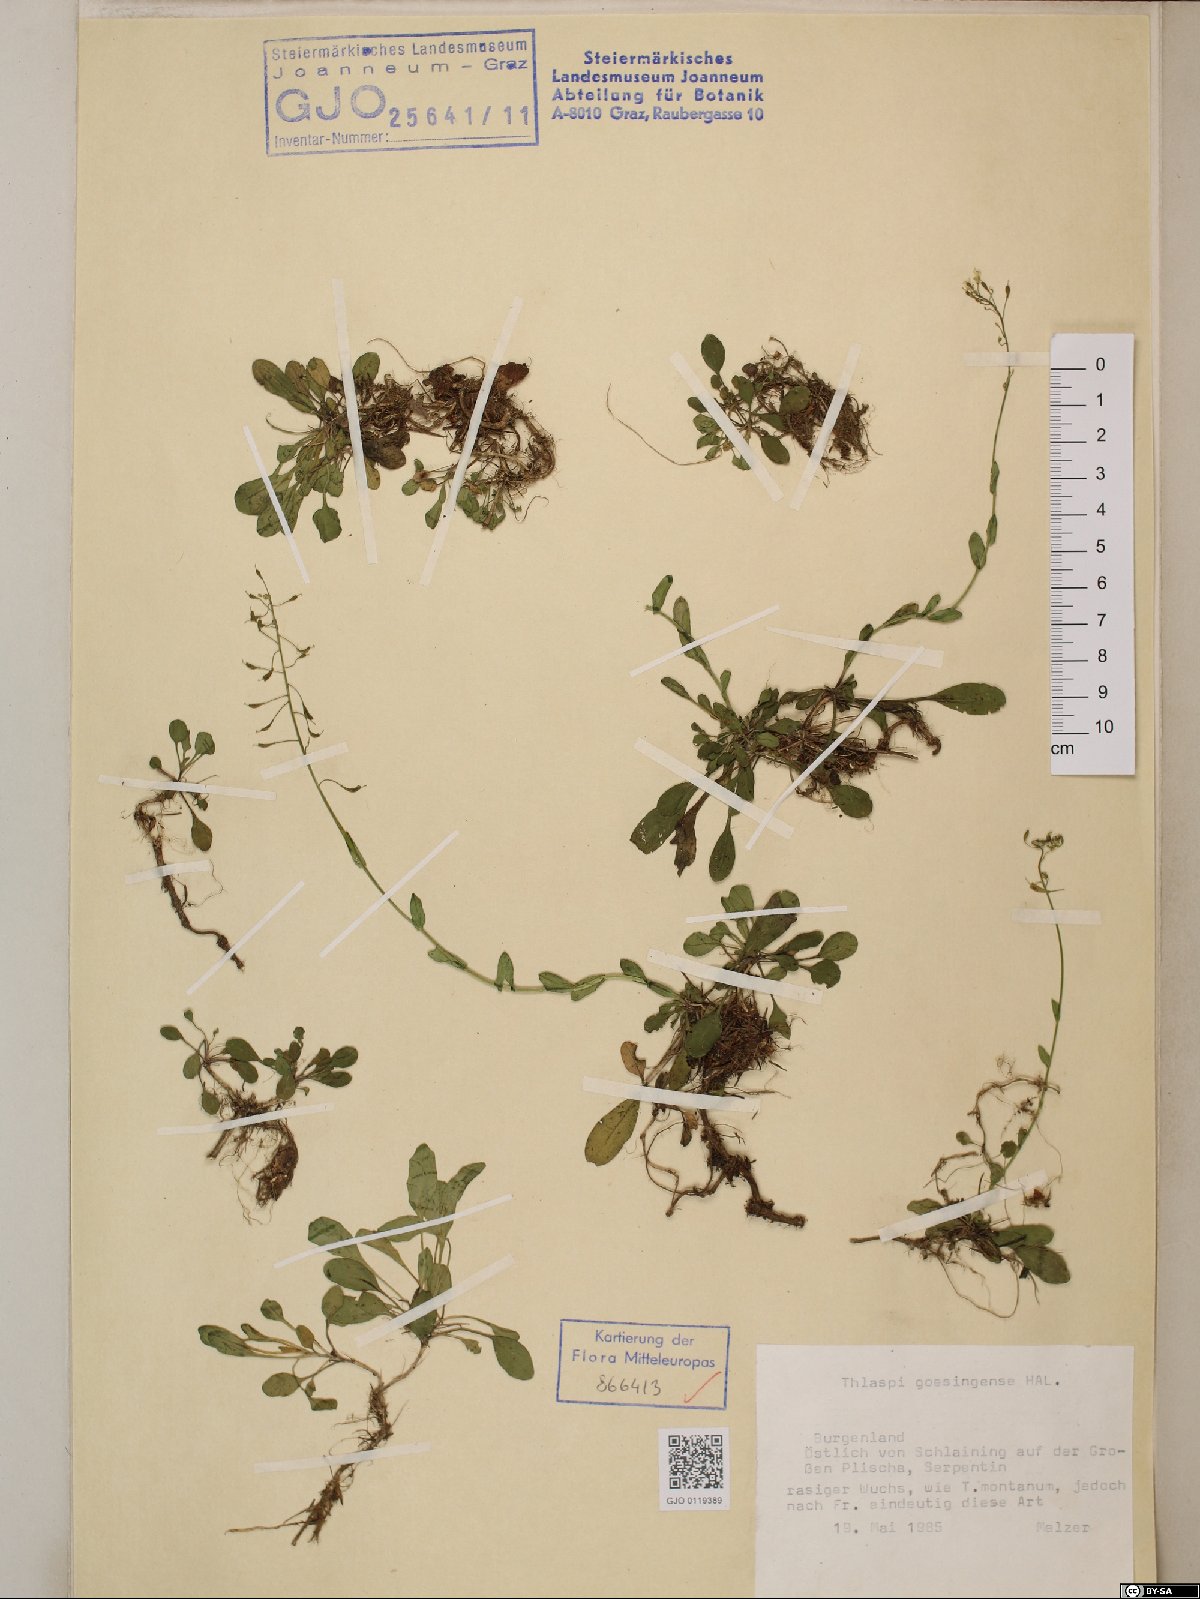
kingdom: Plantae
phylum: Tracheophyta
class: Magnoliopsida
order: Brassicales
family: Brassicaceae
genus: Noccaea
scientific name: Noccaea goesingensis
